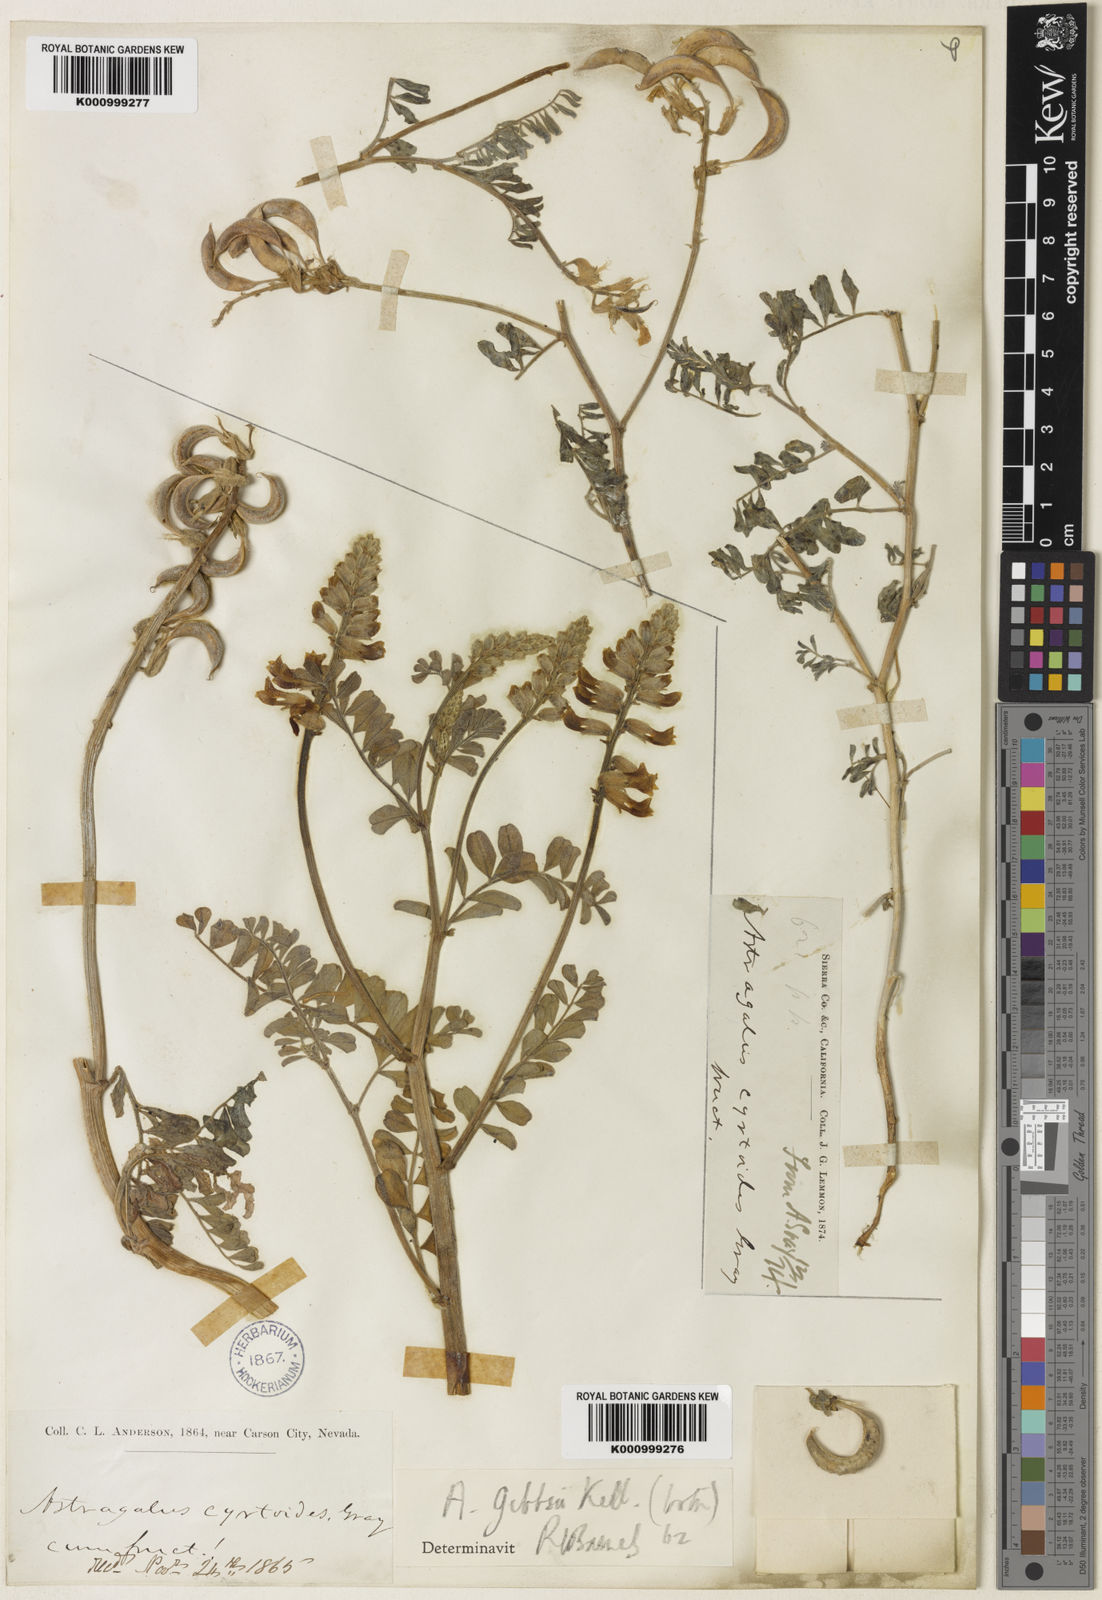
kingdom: Plantae
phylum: Tracheophyta
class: Magnoliopsida
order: Fabales
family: Fabaceae
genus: Astragalus
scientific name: Astragalus gibbsii
